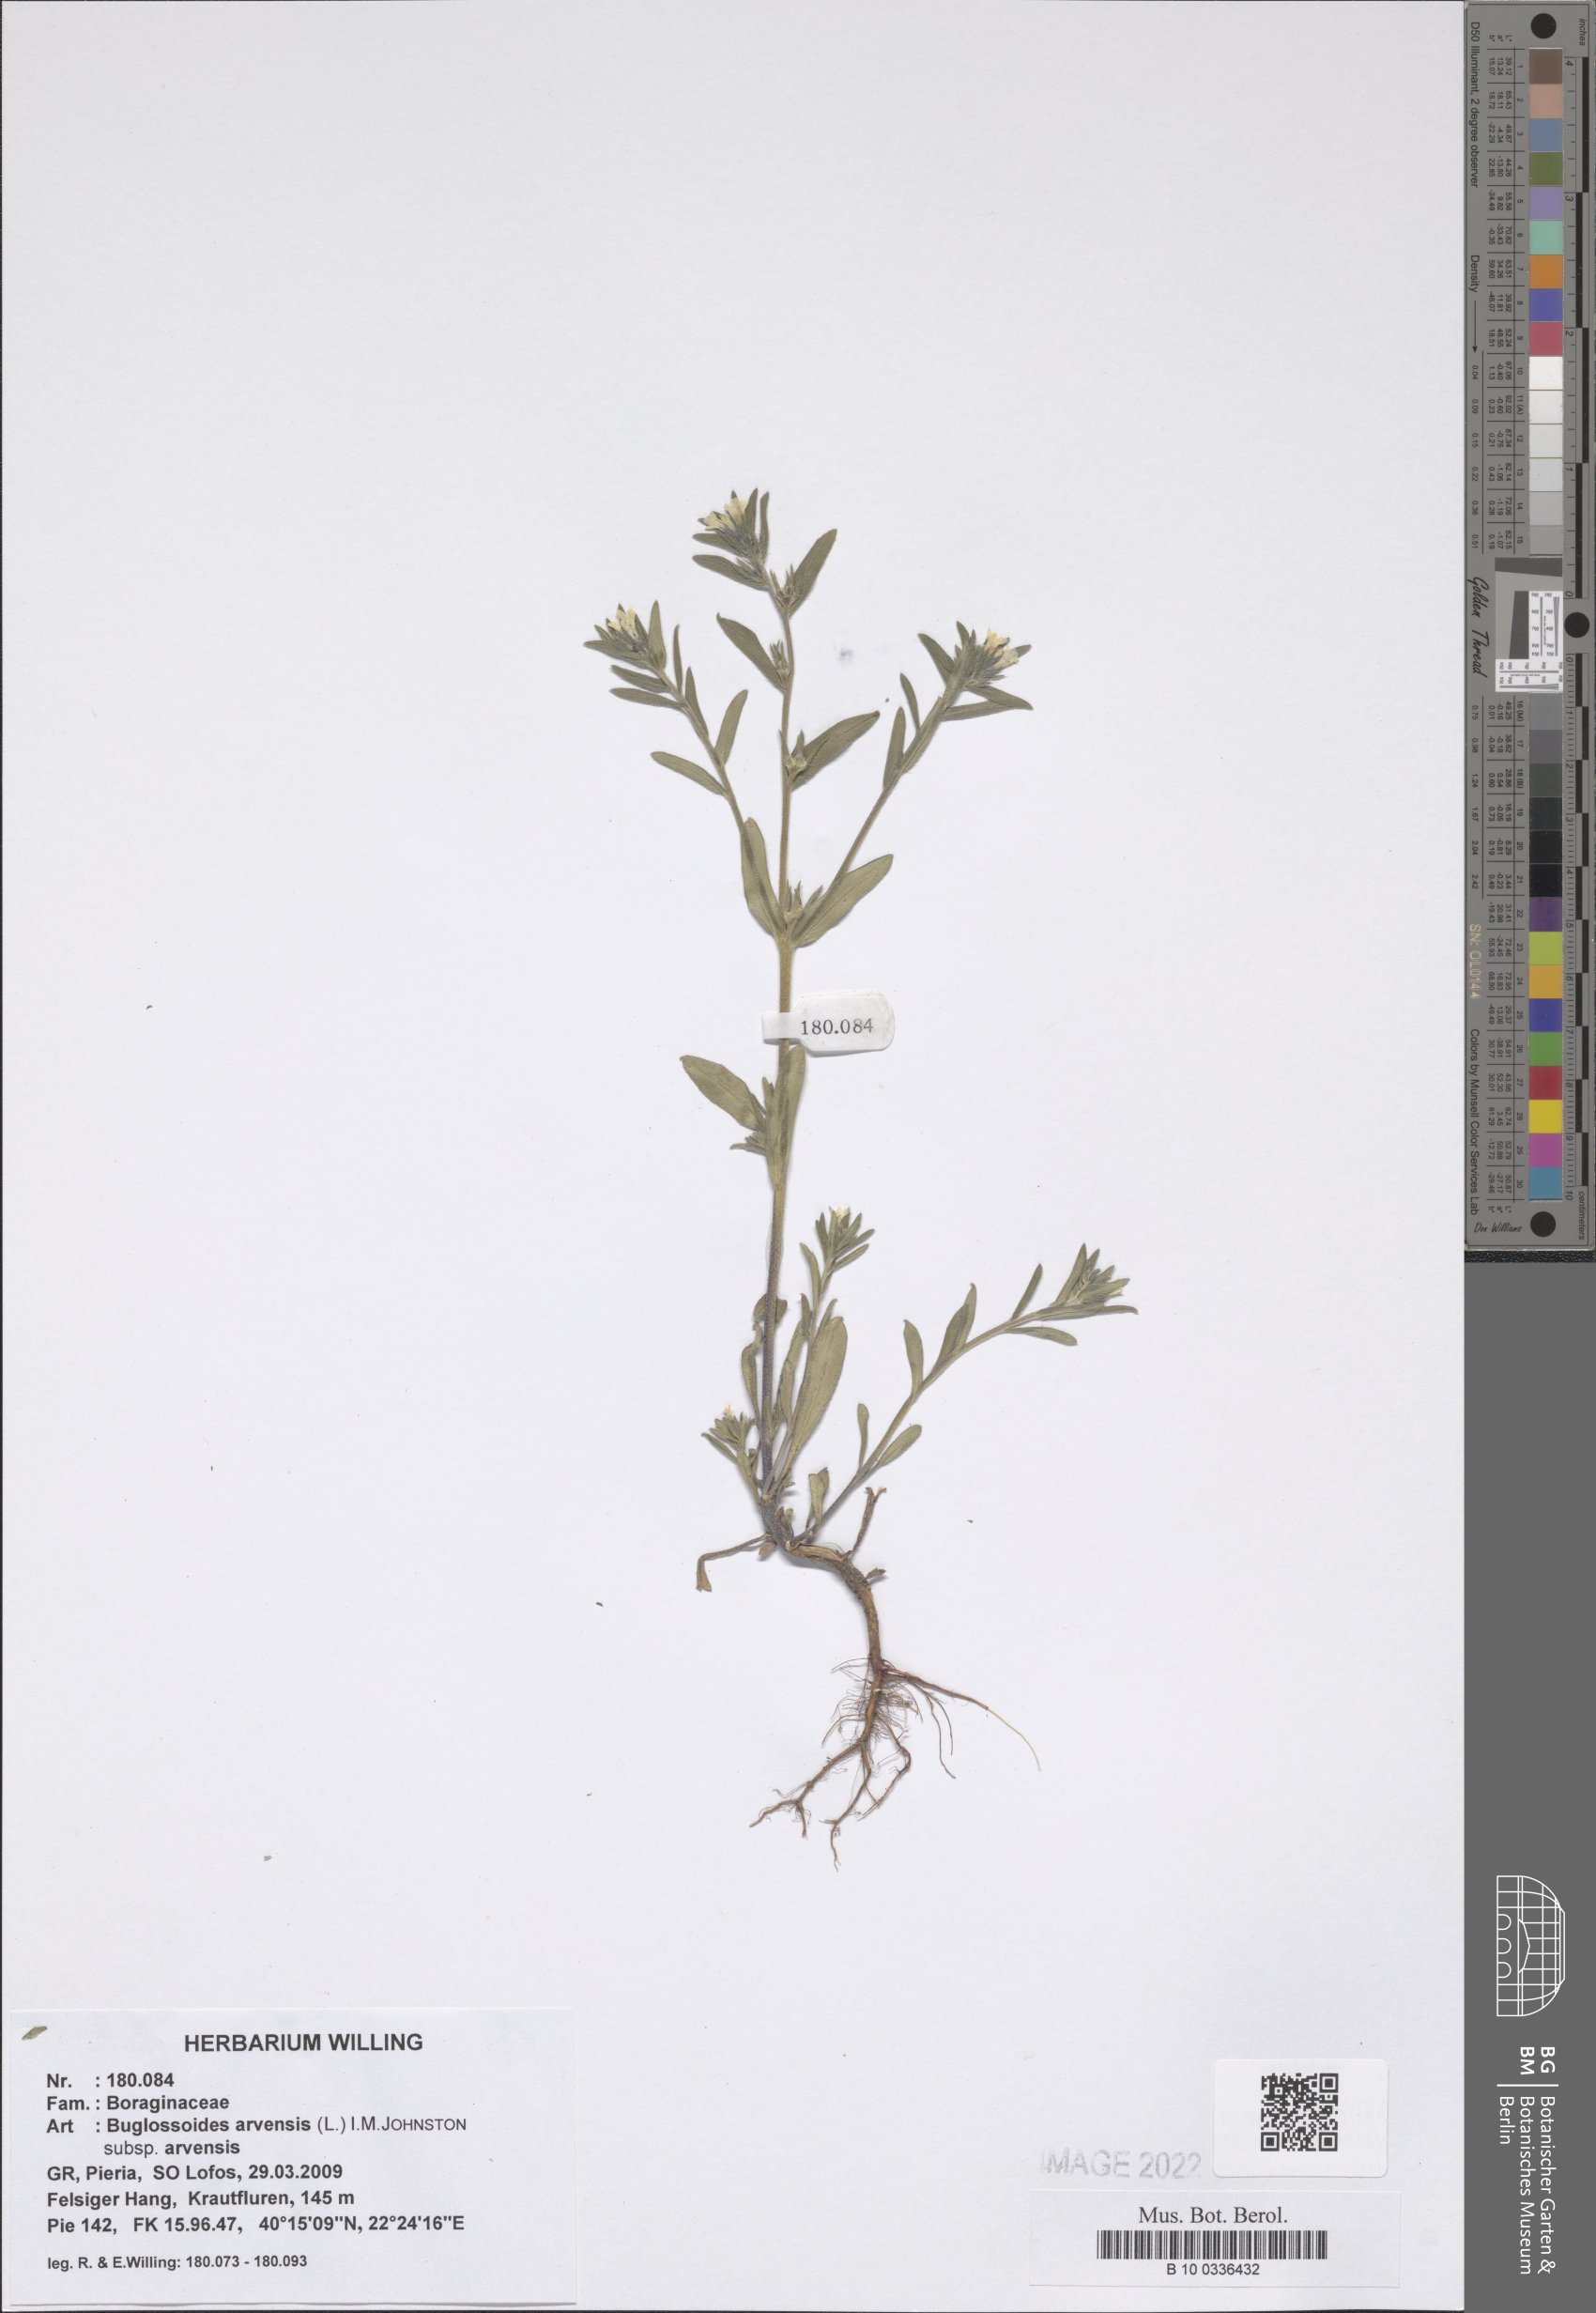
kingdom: Plantae
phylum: Tracheophyta
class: Magnoliopsida
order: Boraginales
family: Boraginaceae
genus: Buglossoides
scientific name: Buglossoides arvensis
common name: Corn gromwell
